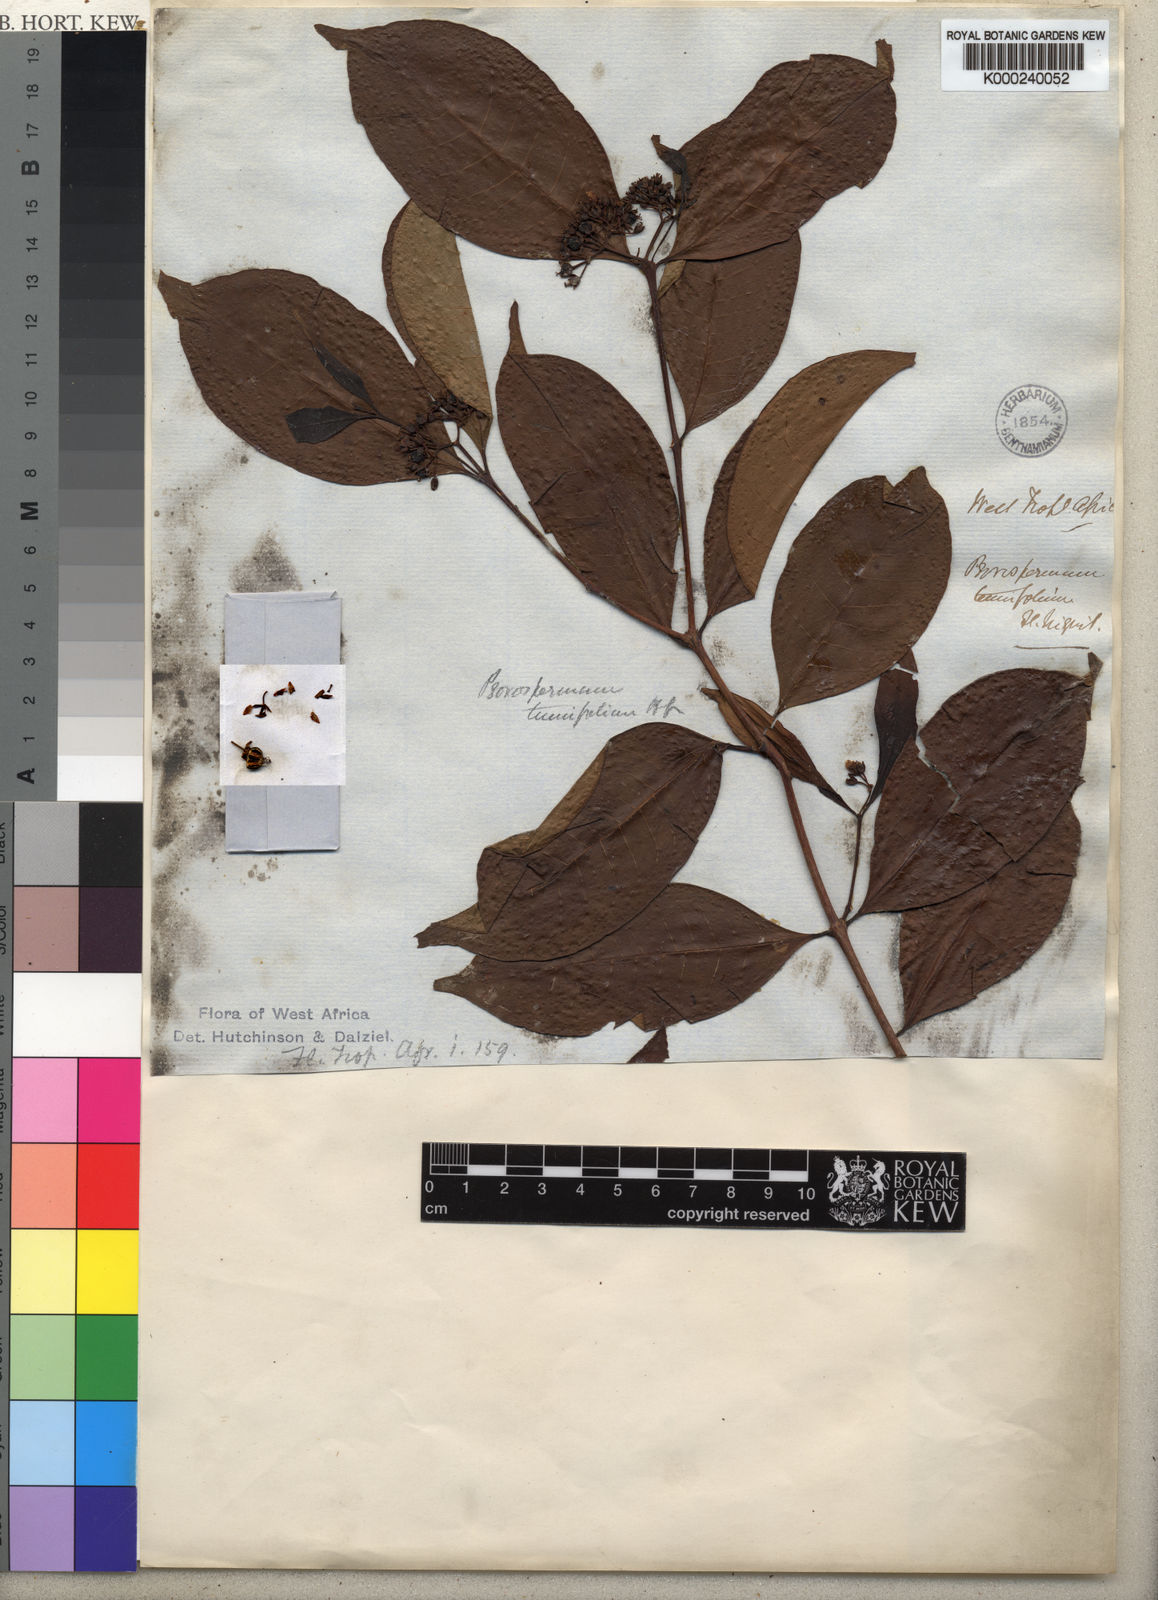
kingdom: Plantae
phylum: Tracheophyta
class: Magnoliopsida
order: Malpighiales
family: Hypericaceae
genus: Psorospermum
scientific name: Psorospermum tenuifolium
